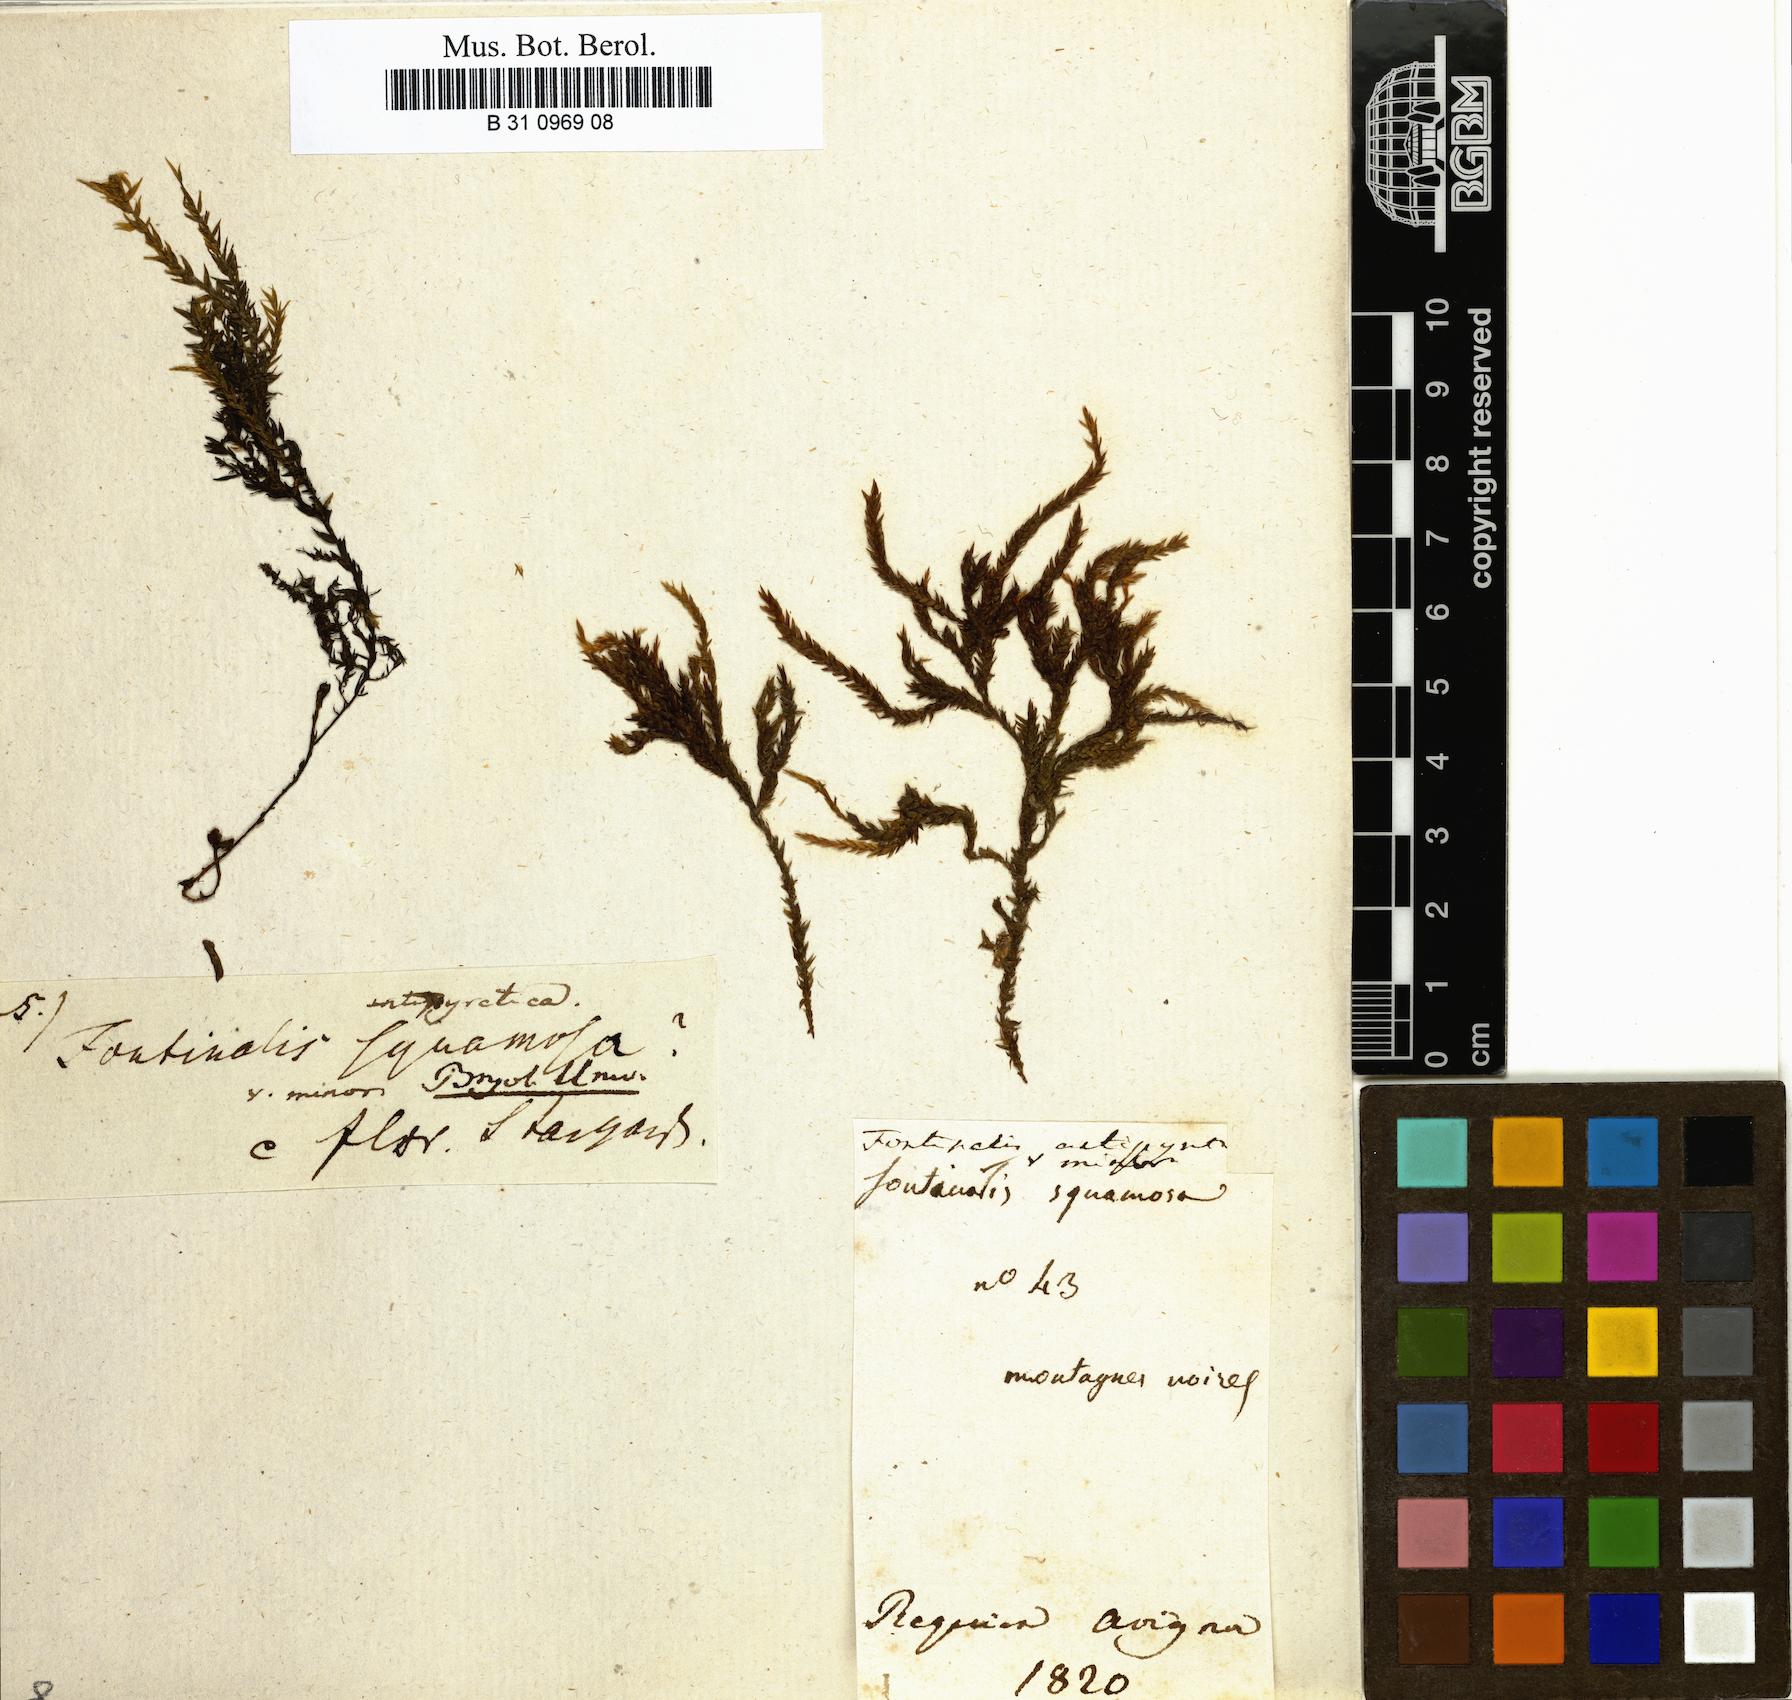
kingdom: Plantae
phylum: Bryophyta
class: Bryopsida
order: Hypnales
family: Fontinalaceae
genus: Fontinalis
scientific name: Fontinalis antipyretica
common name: Greater water-moss
